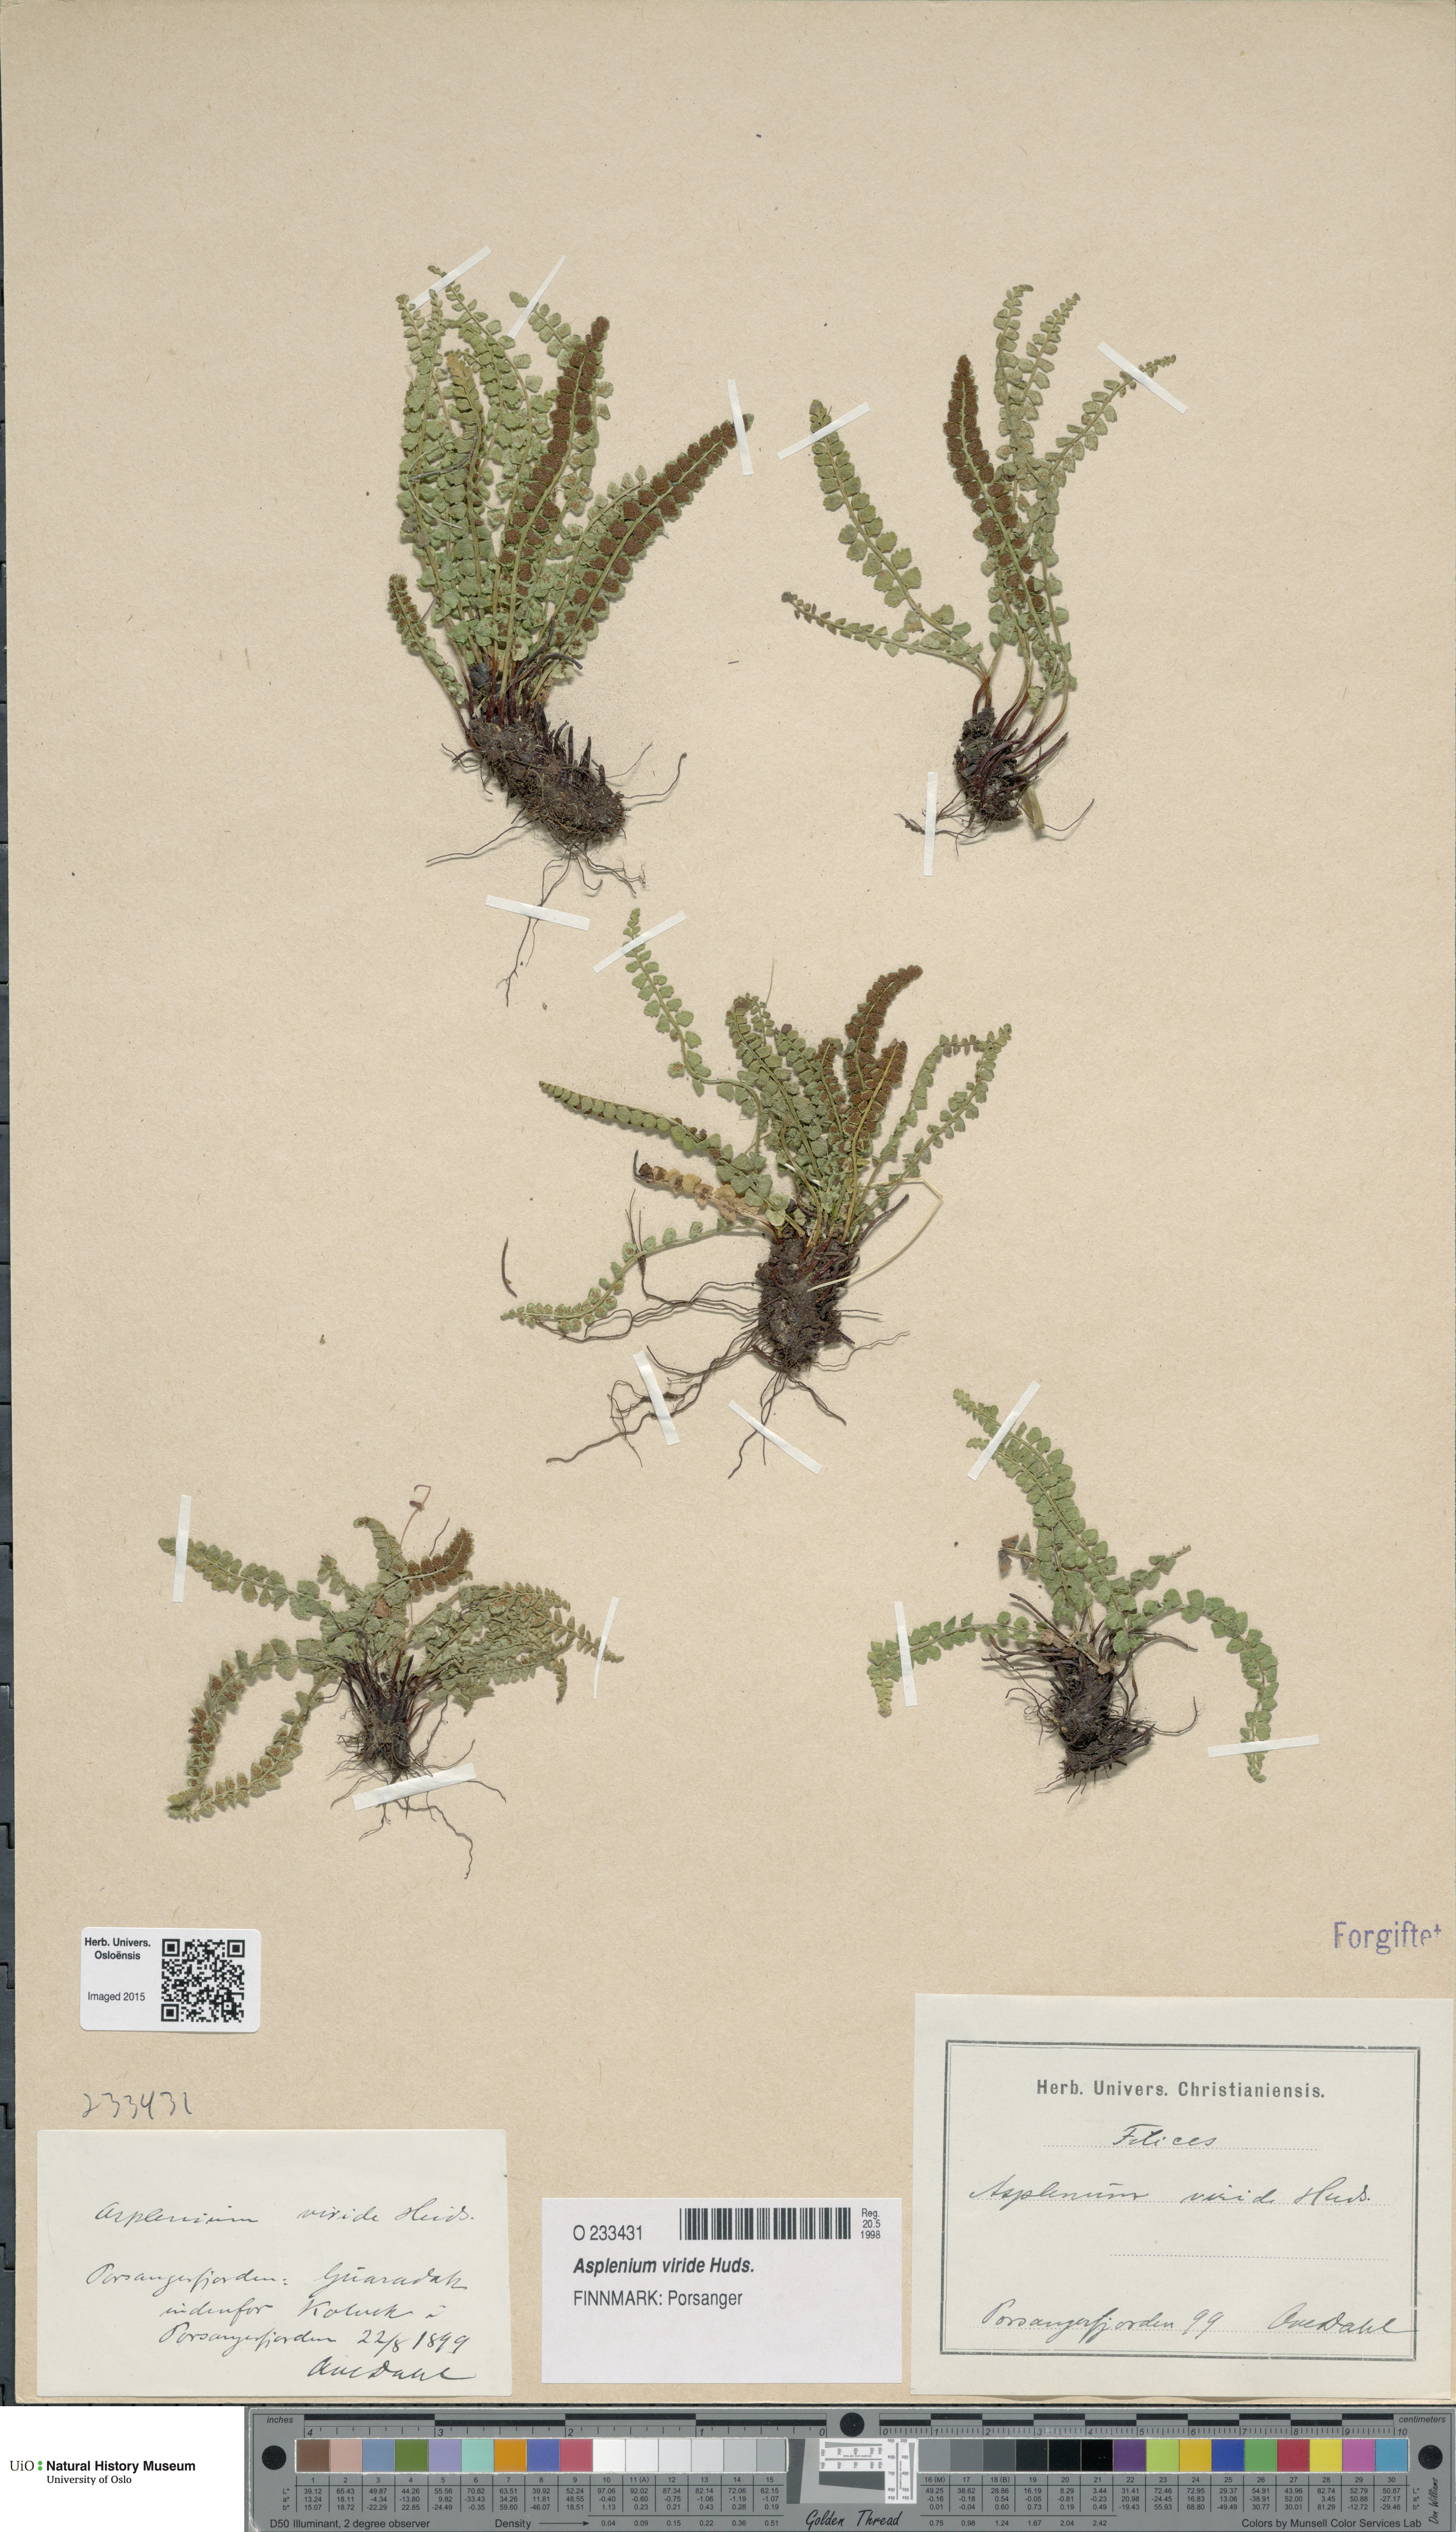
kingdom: Plantae
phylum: Tracheophyta
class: Polypodiopsida
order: Polypodiales
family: Aspleniaceae
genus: Asplenium
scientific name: Asplenium viride
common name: Green spleenwort
